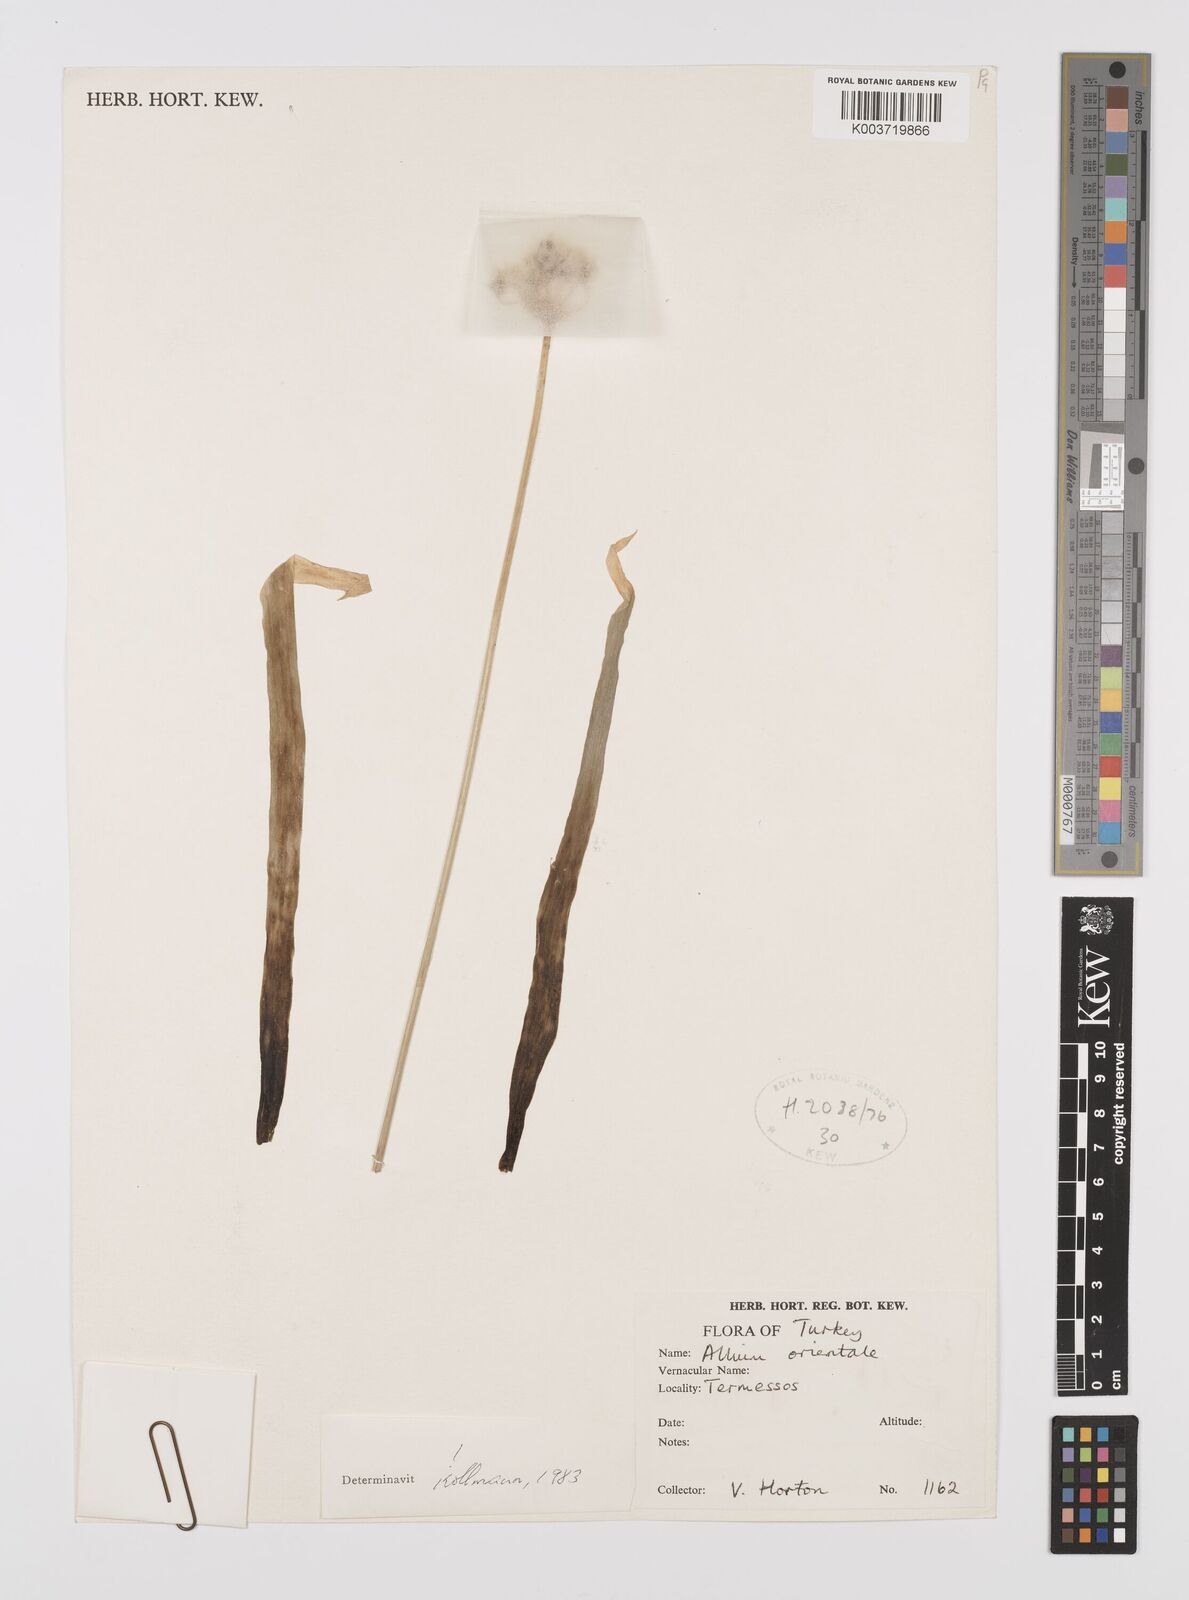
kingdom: Plantae
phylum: Tracheophyta
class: Liliopsida
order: Asparagales
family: Amaryllidaceae
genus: Allium
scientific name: Allium orientale
